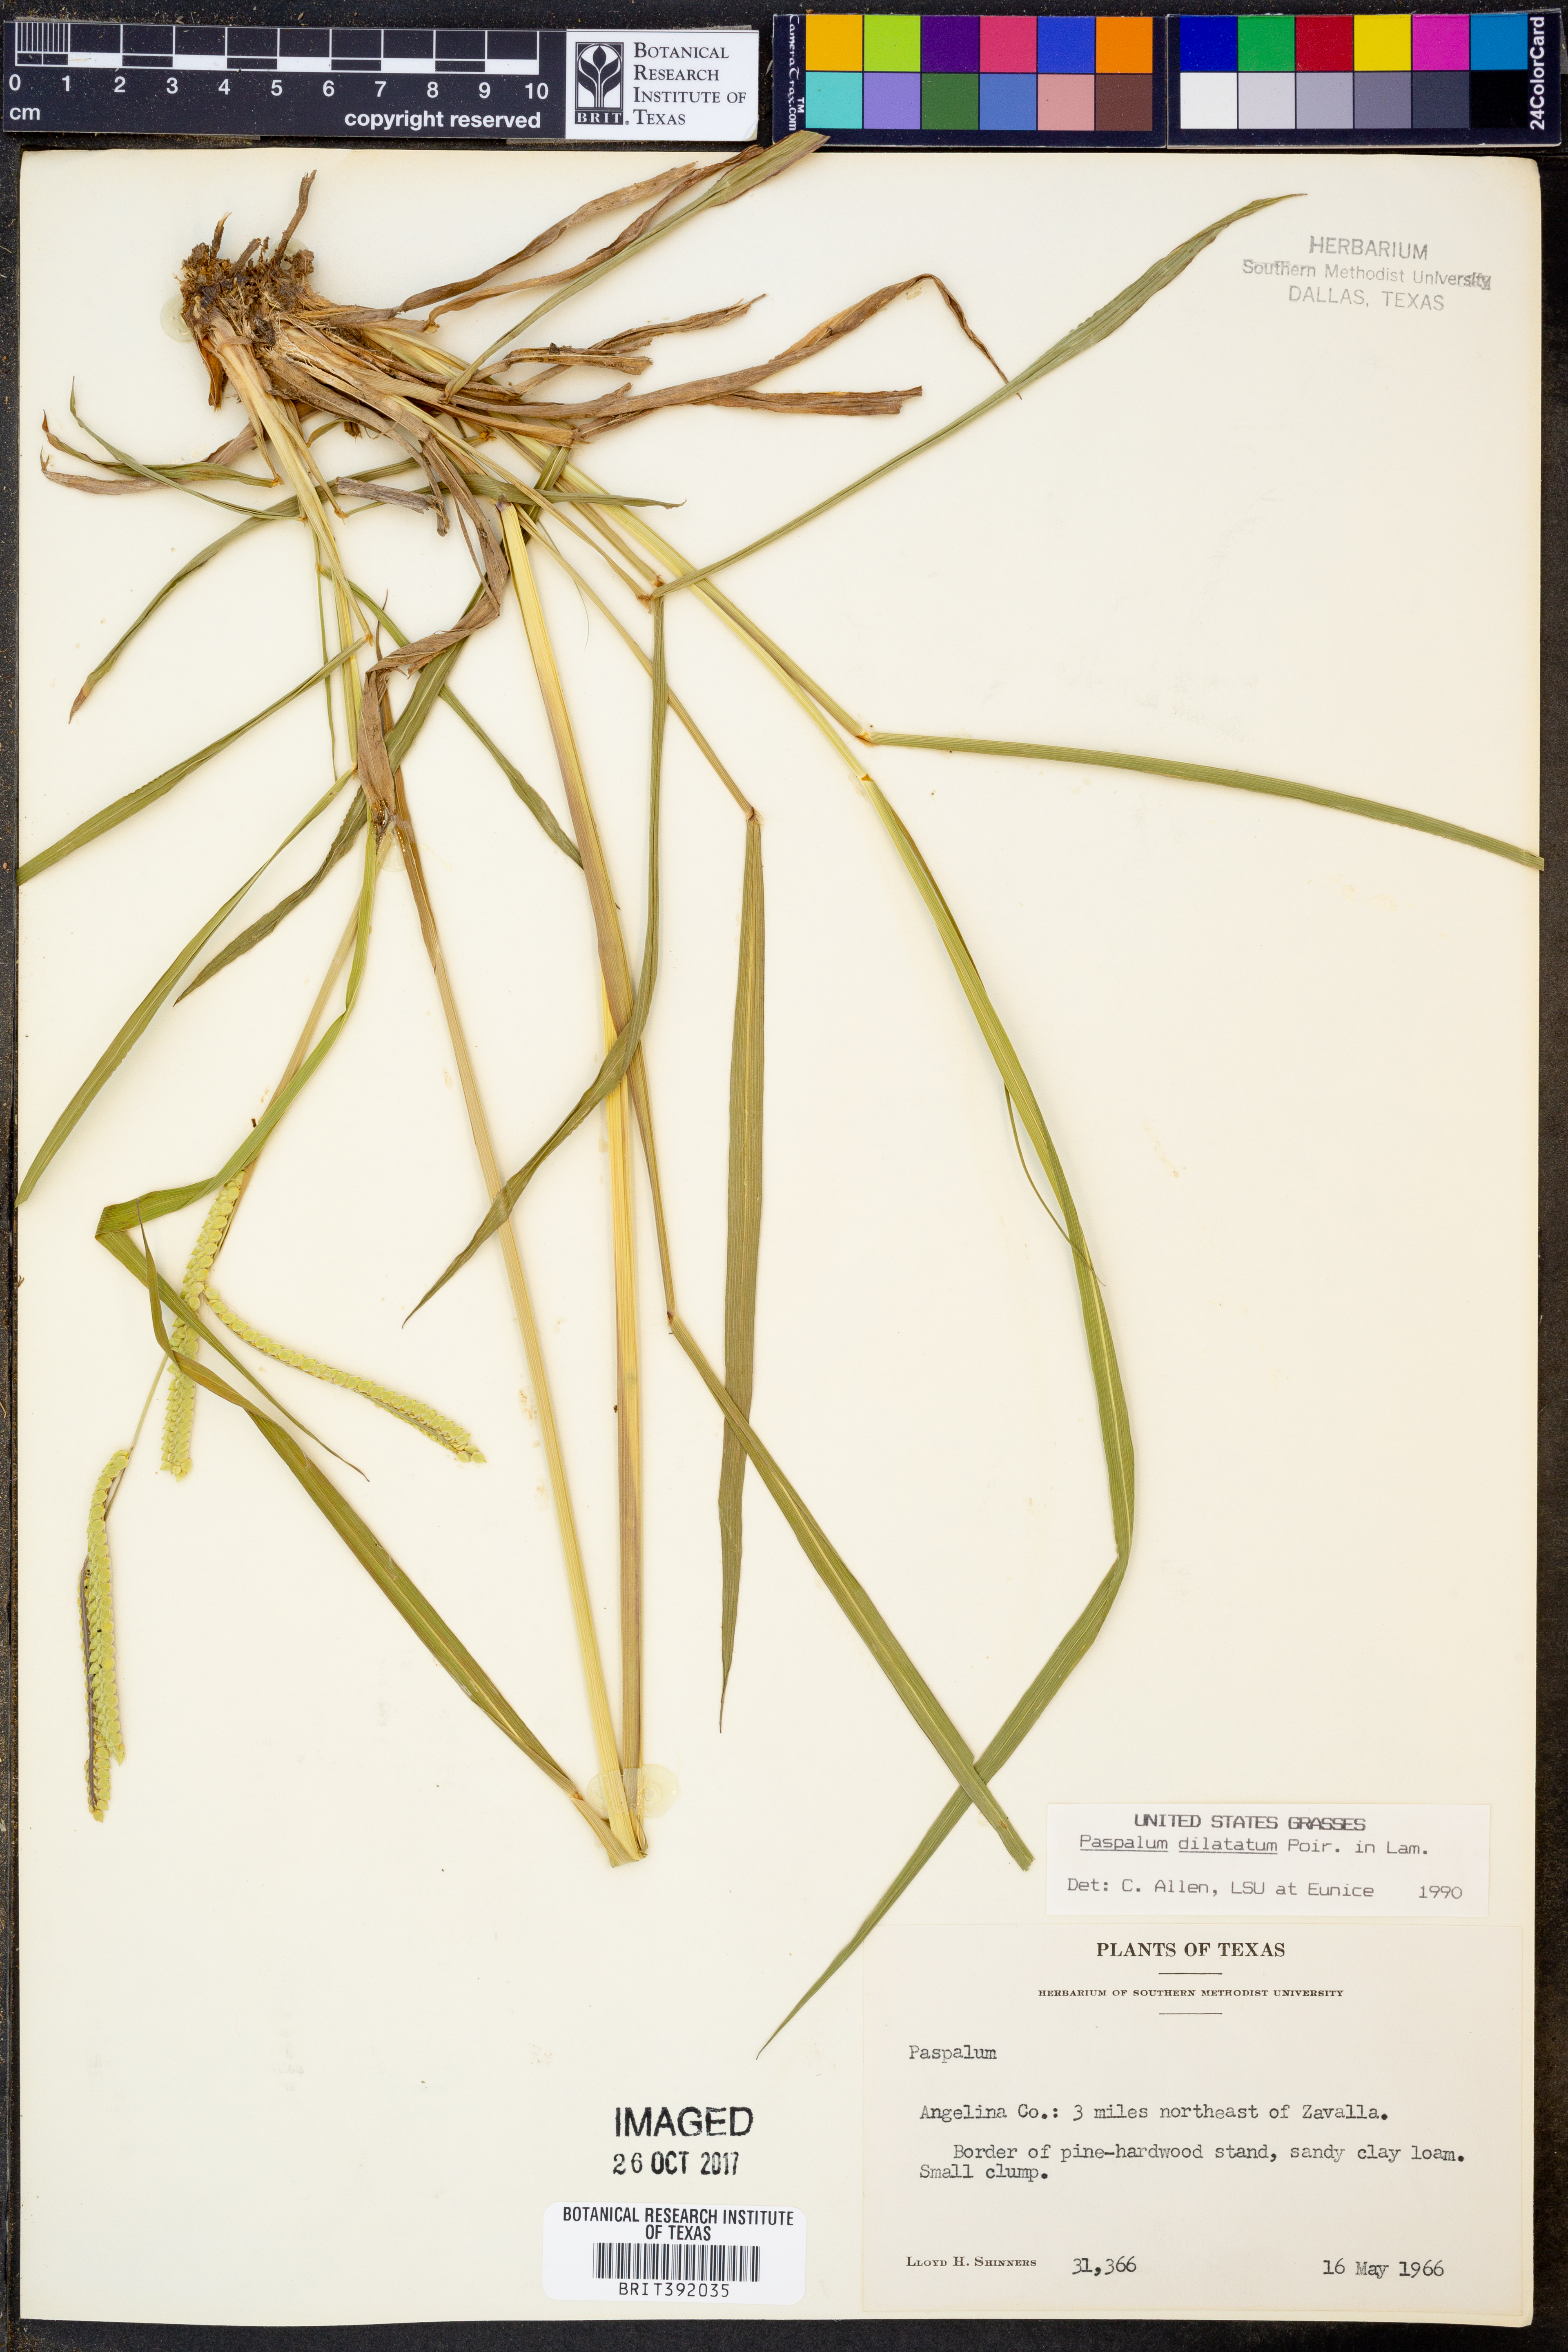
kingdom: Plantae
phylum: Tracheophyta
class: Liliopsida
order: Poales
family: Poaceae
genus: Paspalum
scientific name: Paspalum dilatatum
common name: Dallisgrass
